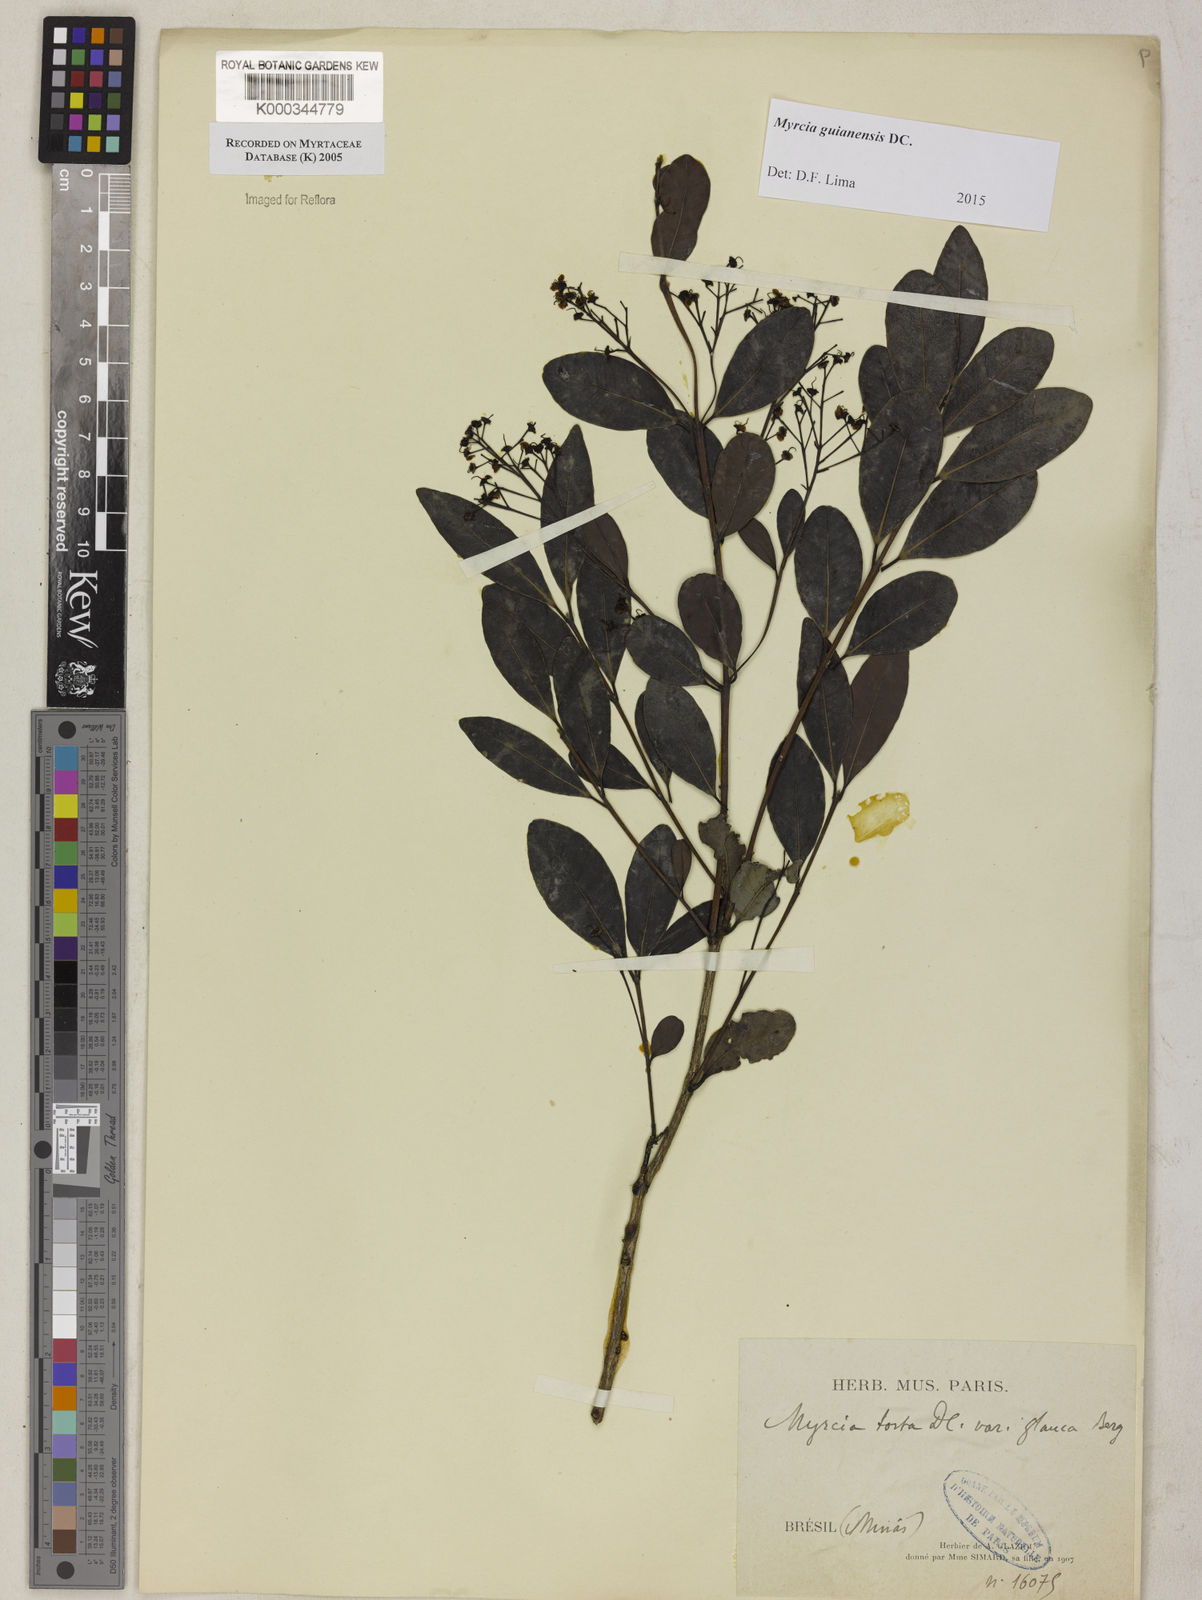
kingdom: Plantae
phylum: Tracheophyta
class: Magnoliopsida
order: Myrtales
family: Myrtaceae
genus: Myrcia
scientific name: Myrcia guianensis
